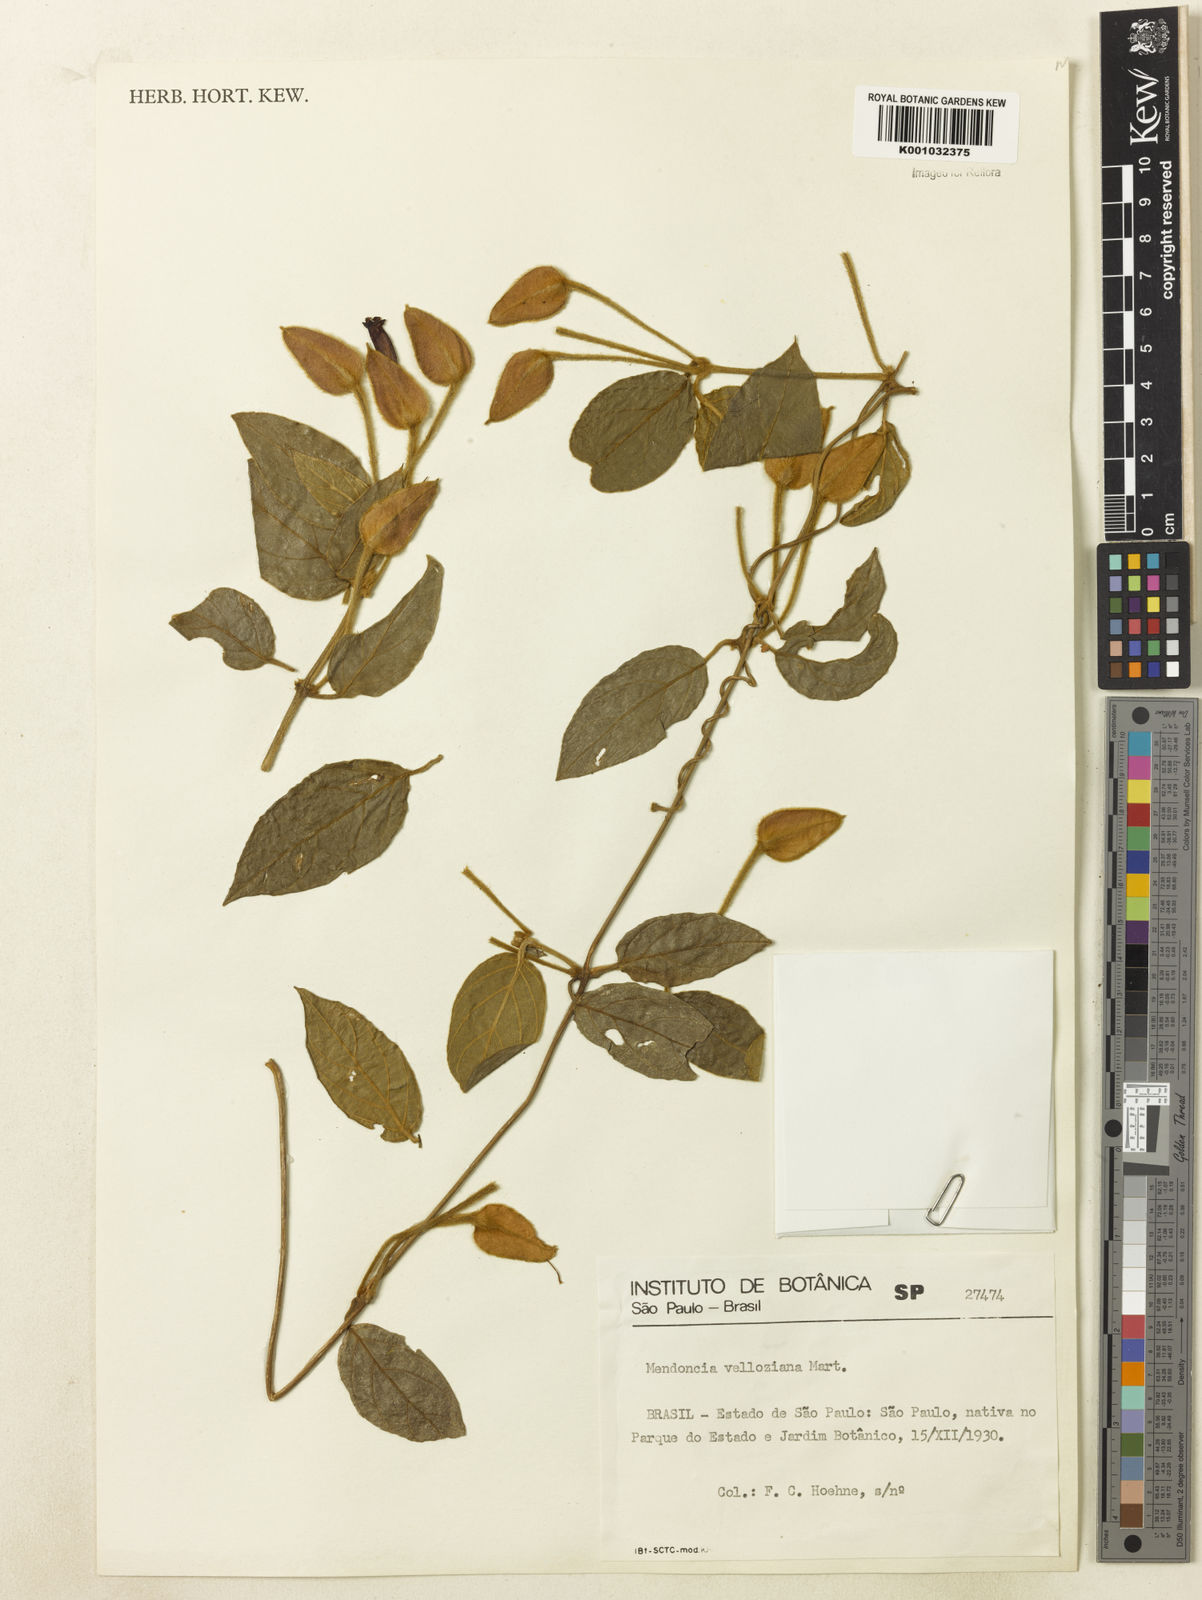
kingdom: Plantae
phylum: Tracheophyta
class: Magnoliopsida
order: Lamiales
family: Acanthaceae
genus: Mendoncia
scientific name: Mendoncia velloziana
